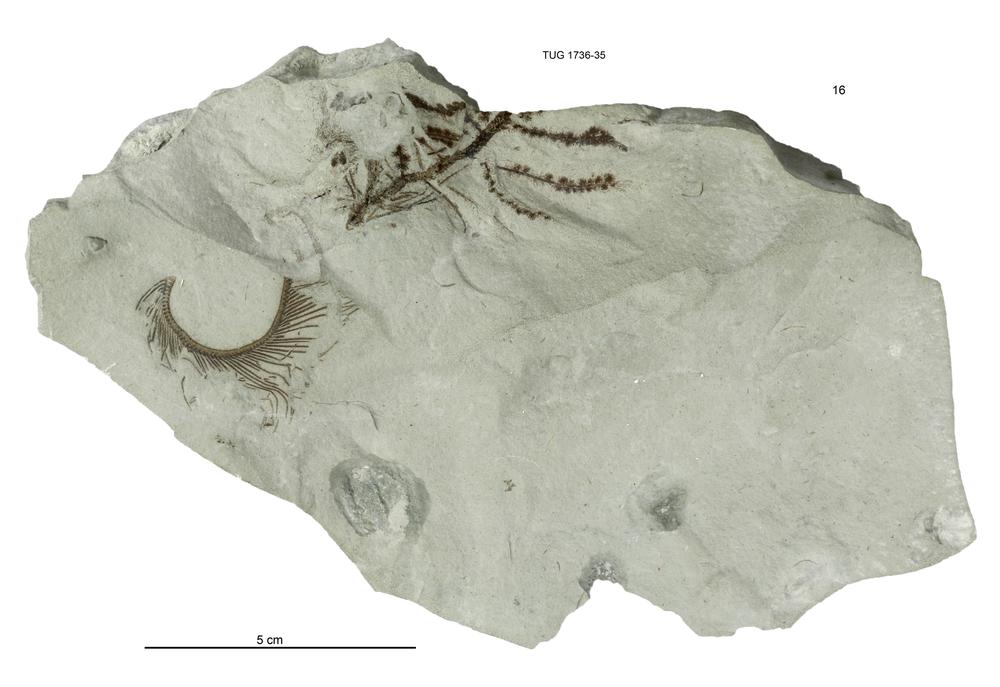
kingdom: Animalia
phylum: Echinodermata
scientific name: Echinodermata
